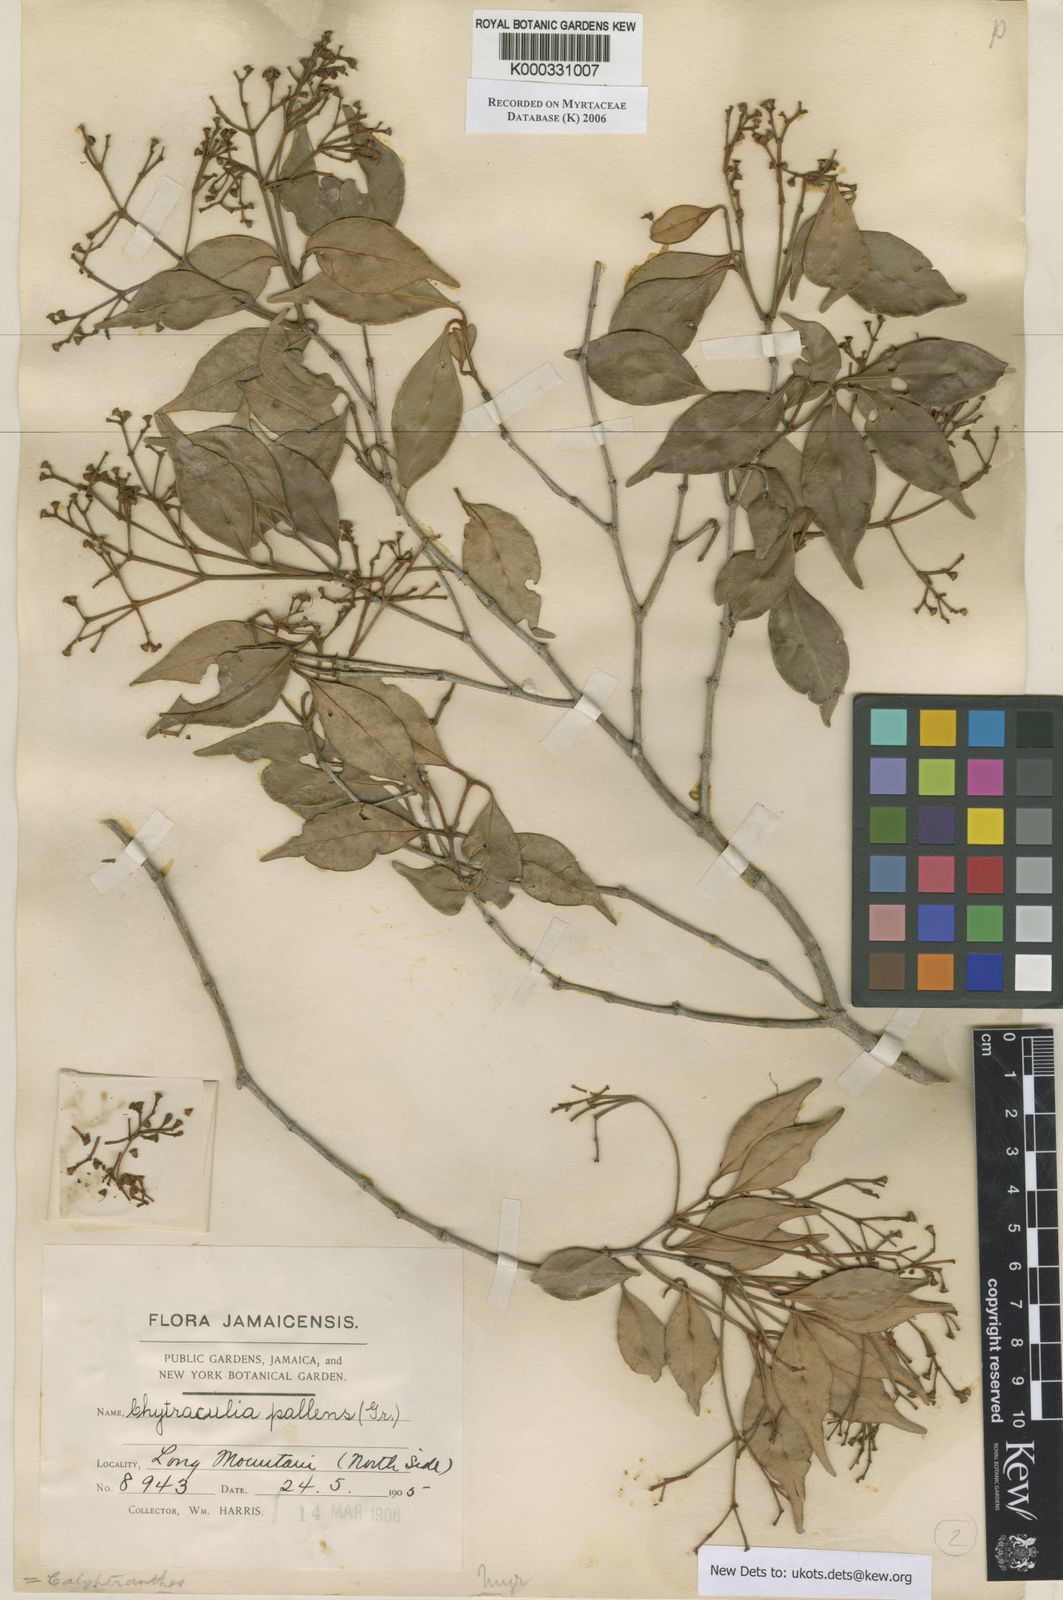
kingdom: Plantae
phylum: Tracheophyta
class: Magnoliopsida
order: Myrtales
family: Myrtaceae
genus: Myrcia
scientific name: Myrcia neopallens
